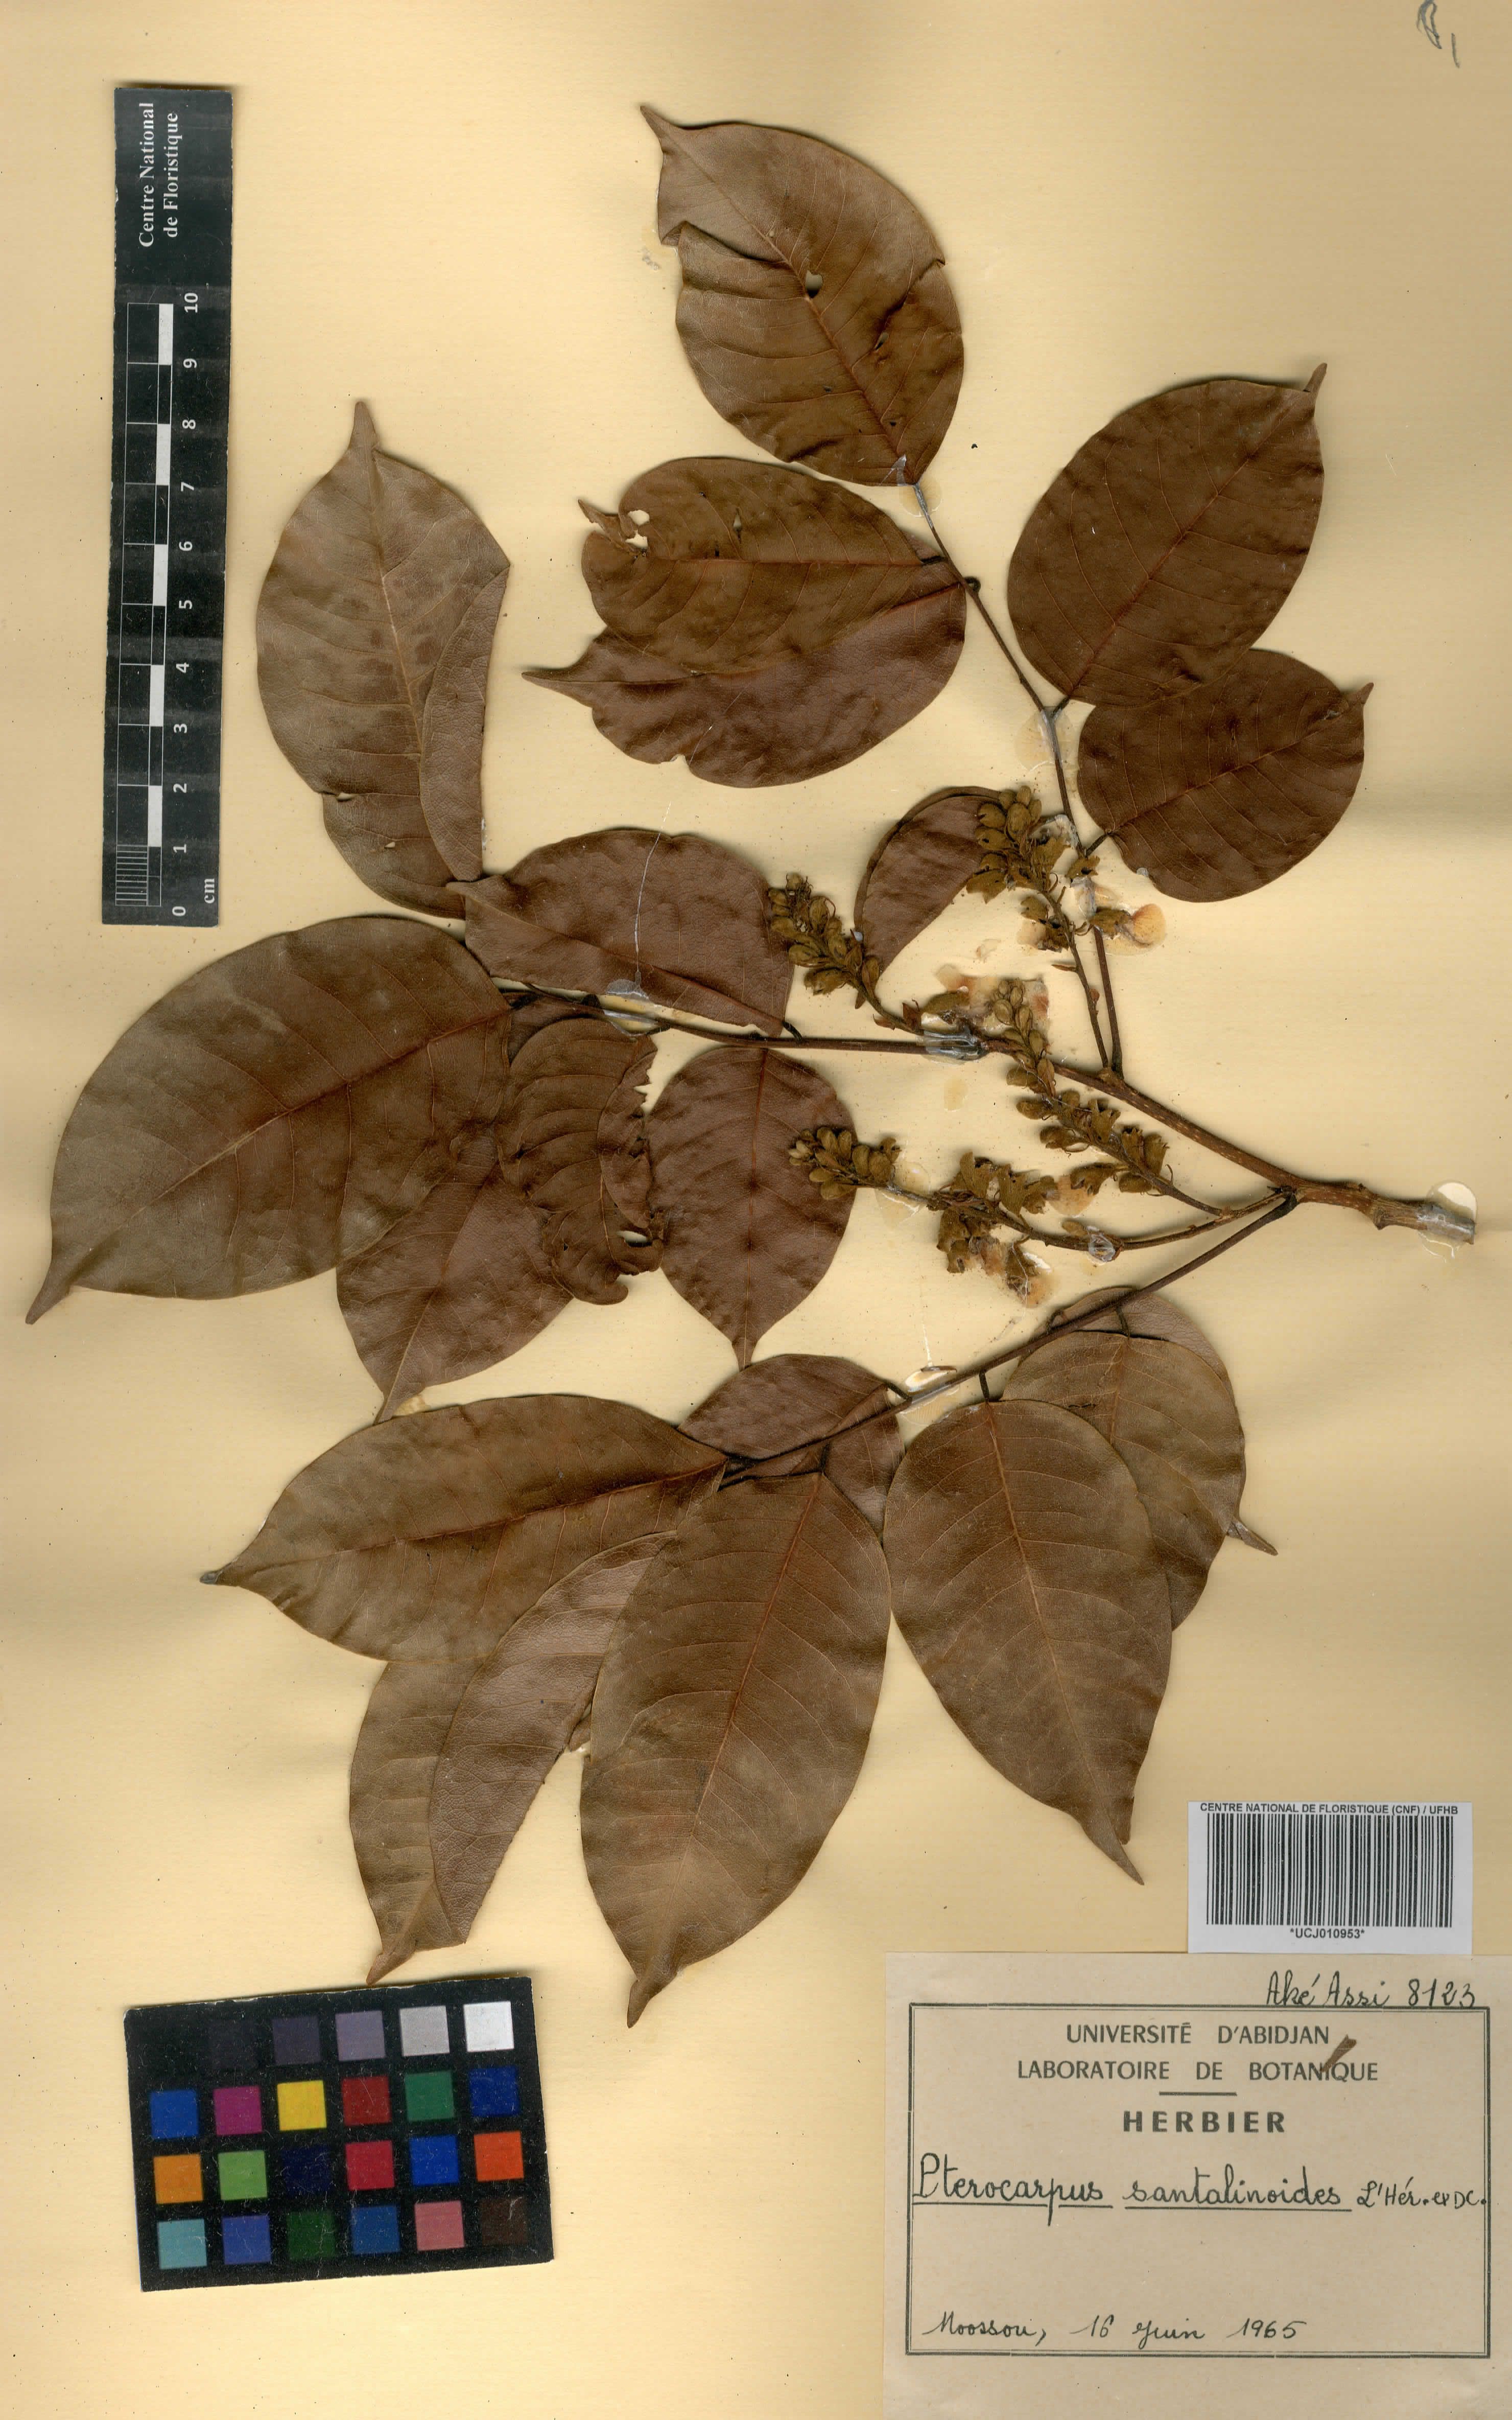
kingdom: Plantae
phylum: Tracheophyta
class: Magnoliopsida
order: Fabales
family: Fabaceae
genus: Pterocarpus
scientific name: Pterocarpus santalinoides
